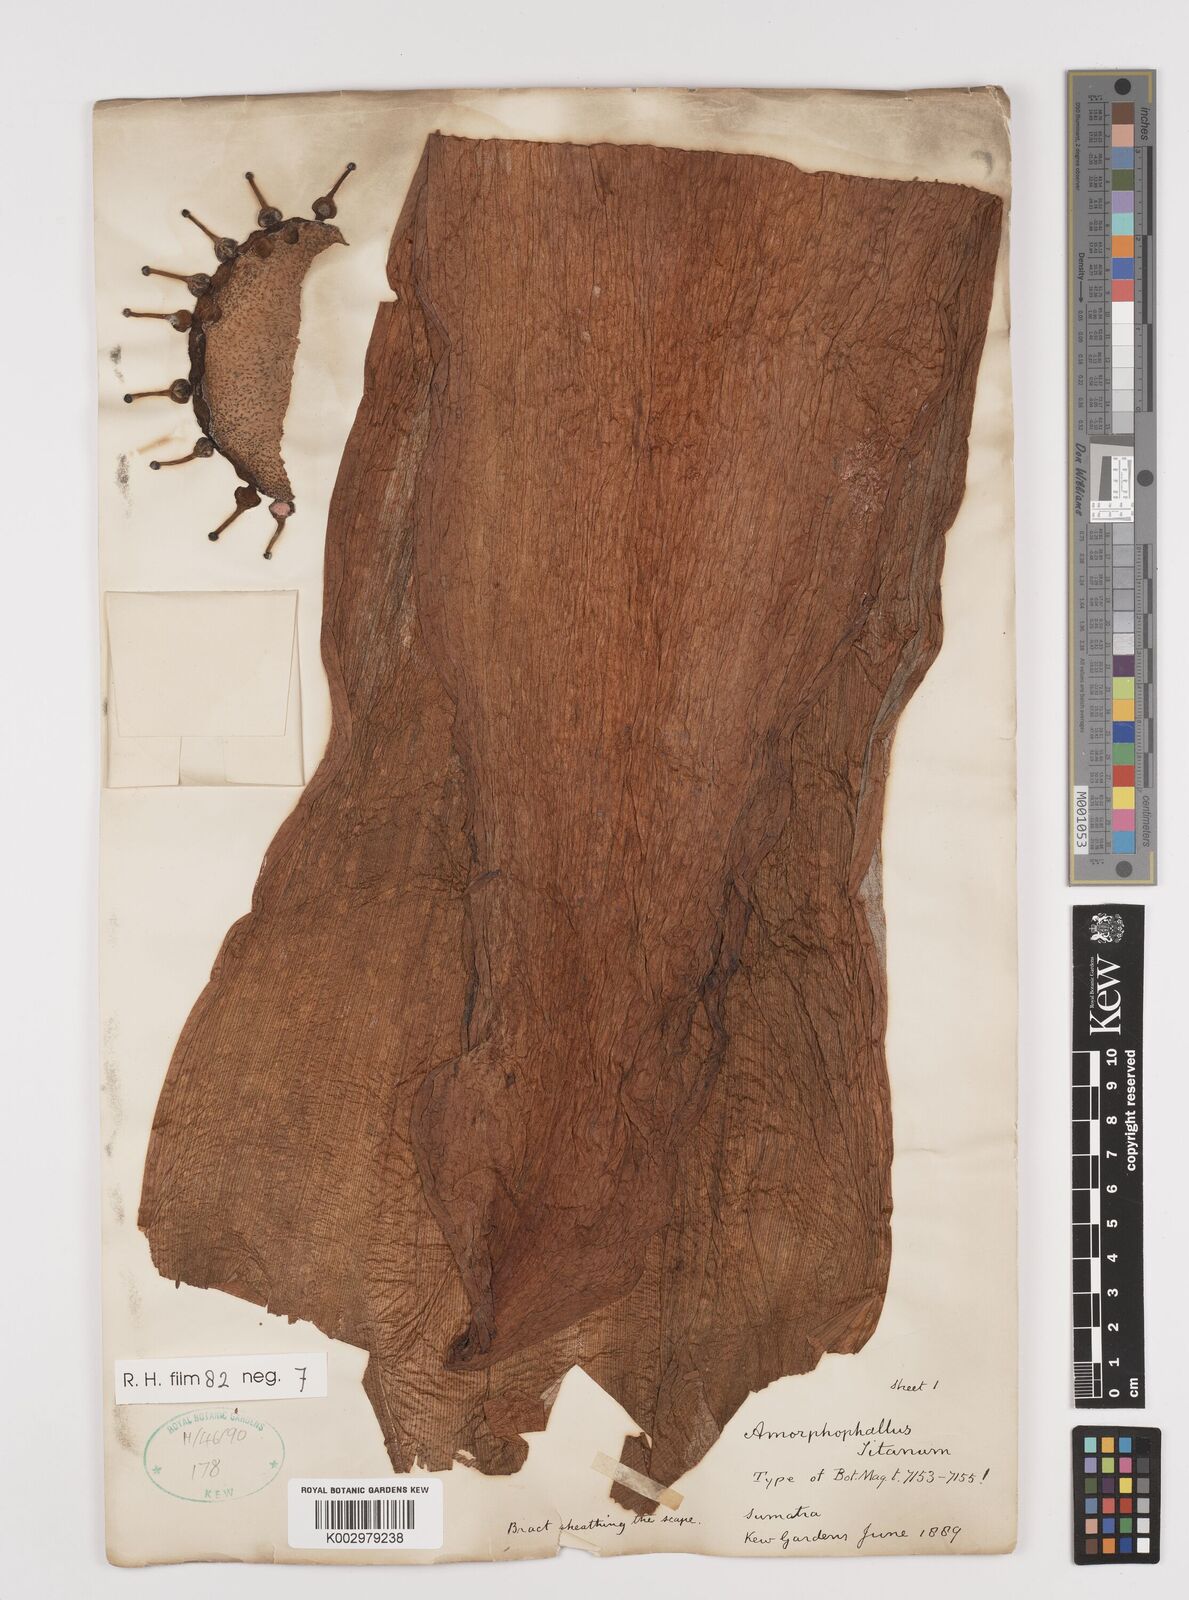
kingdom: Plantae
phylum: Tracheophyta
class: Liliopsida
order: Alismatales
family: Araceae
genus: Amorphophallus
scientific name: Amorphophallus titanum
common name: Titan arum
